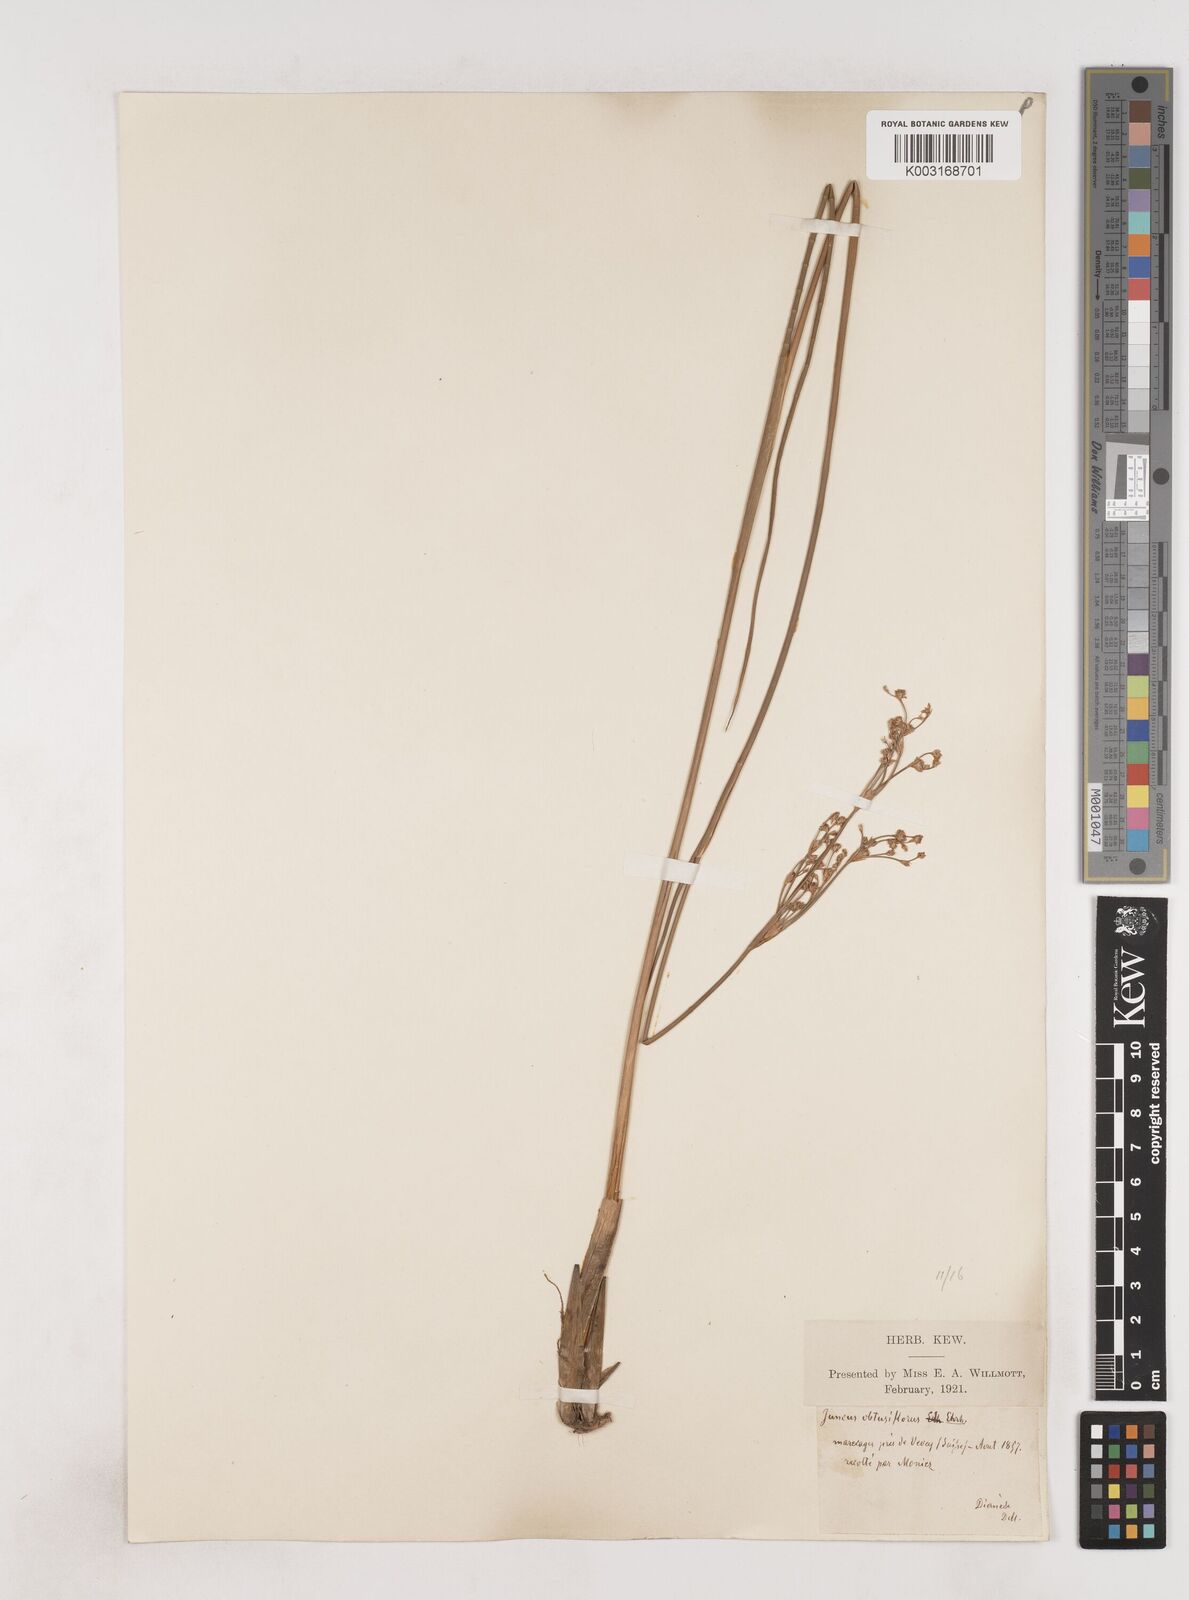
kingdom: Plantae
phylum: Tracheophyta
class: Liliopsida
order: Poales
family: Juncaceae
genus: Juncus
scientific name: Juncus subnodulosus
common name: Blunt-flowered rush
